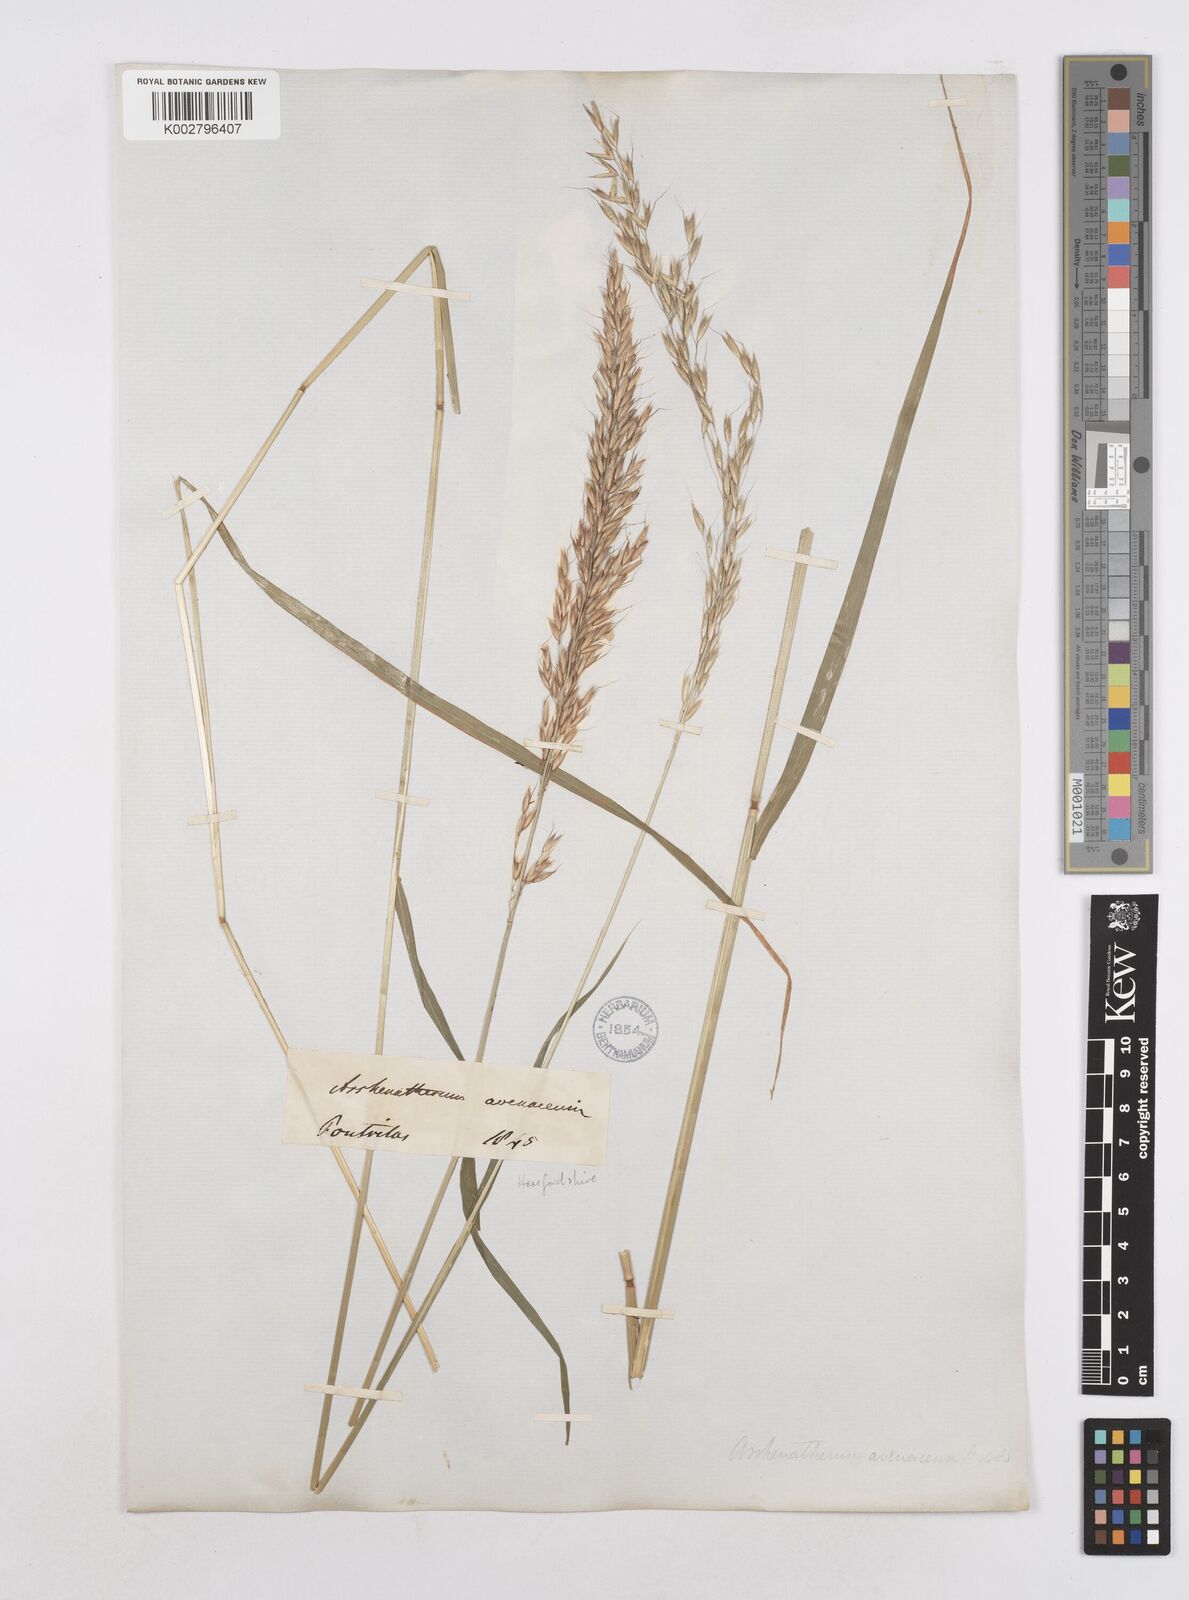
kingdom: Plantae
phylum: Tracheophyta
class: Liliopsida
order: Poales
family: Poaceae
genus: Arrhenatherum
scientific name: Arrhenatherum elatius
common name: Tall oatgrass
